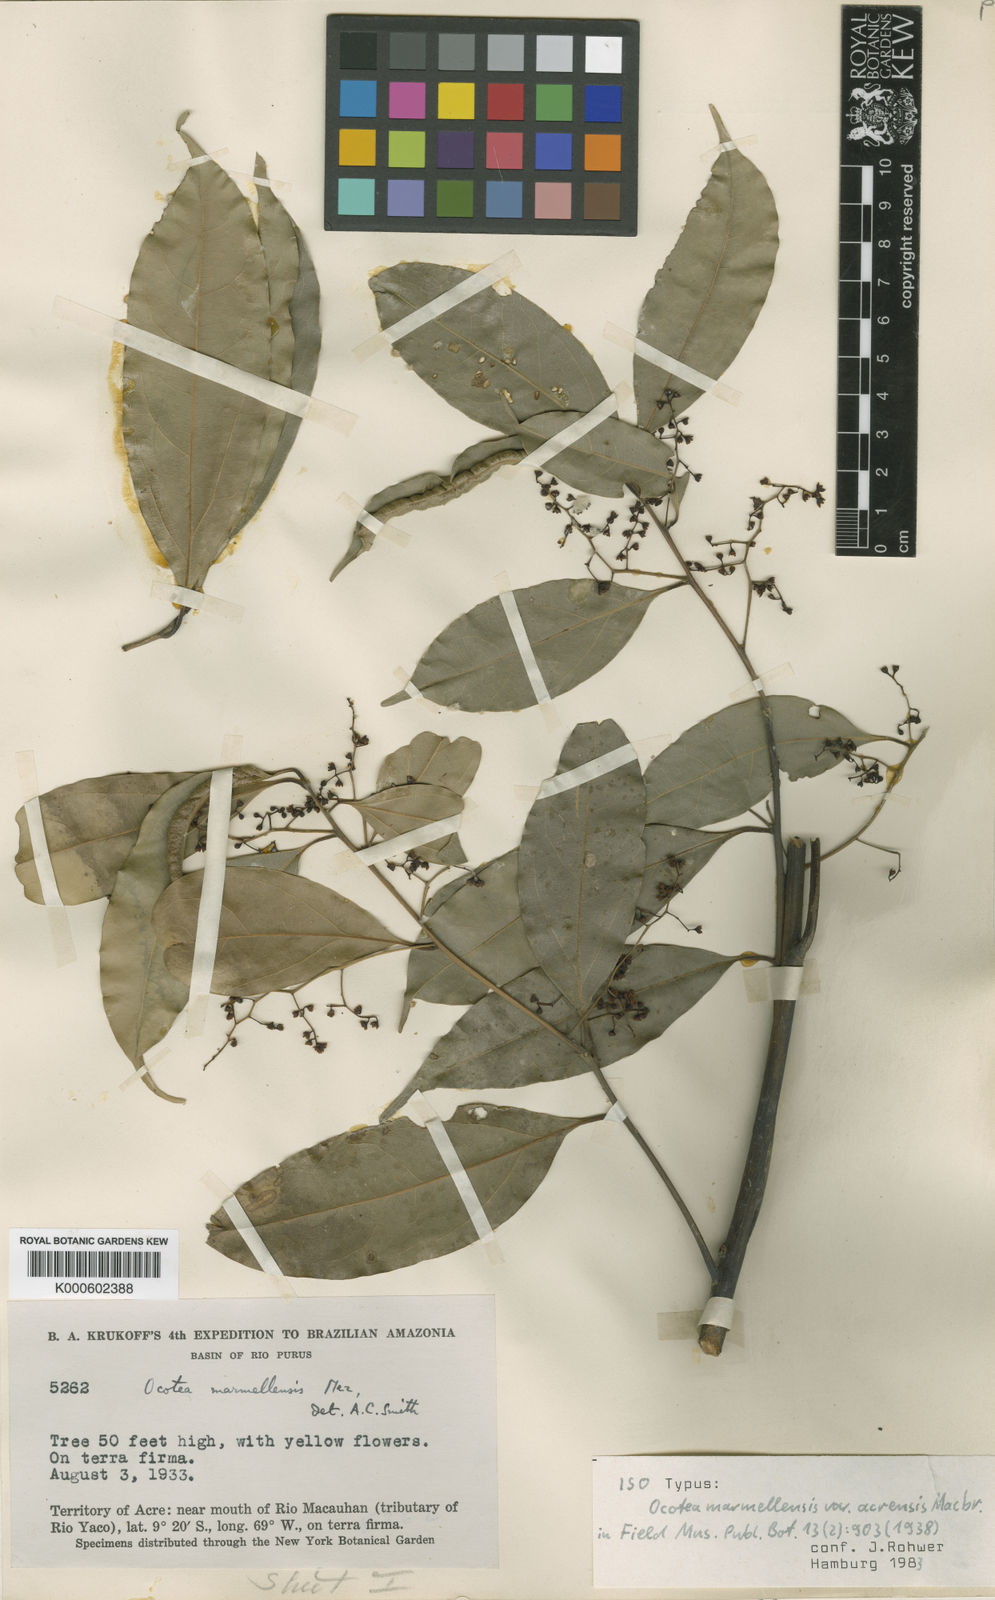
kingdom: Plantae
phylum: Tracheophyta
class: Magnoliopsida
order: Laurales
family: Lauraceae
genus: Ocotea
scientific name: Ocotea leptobotra
